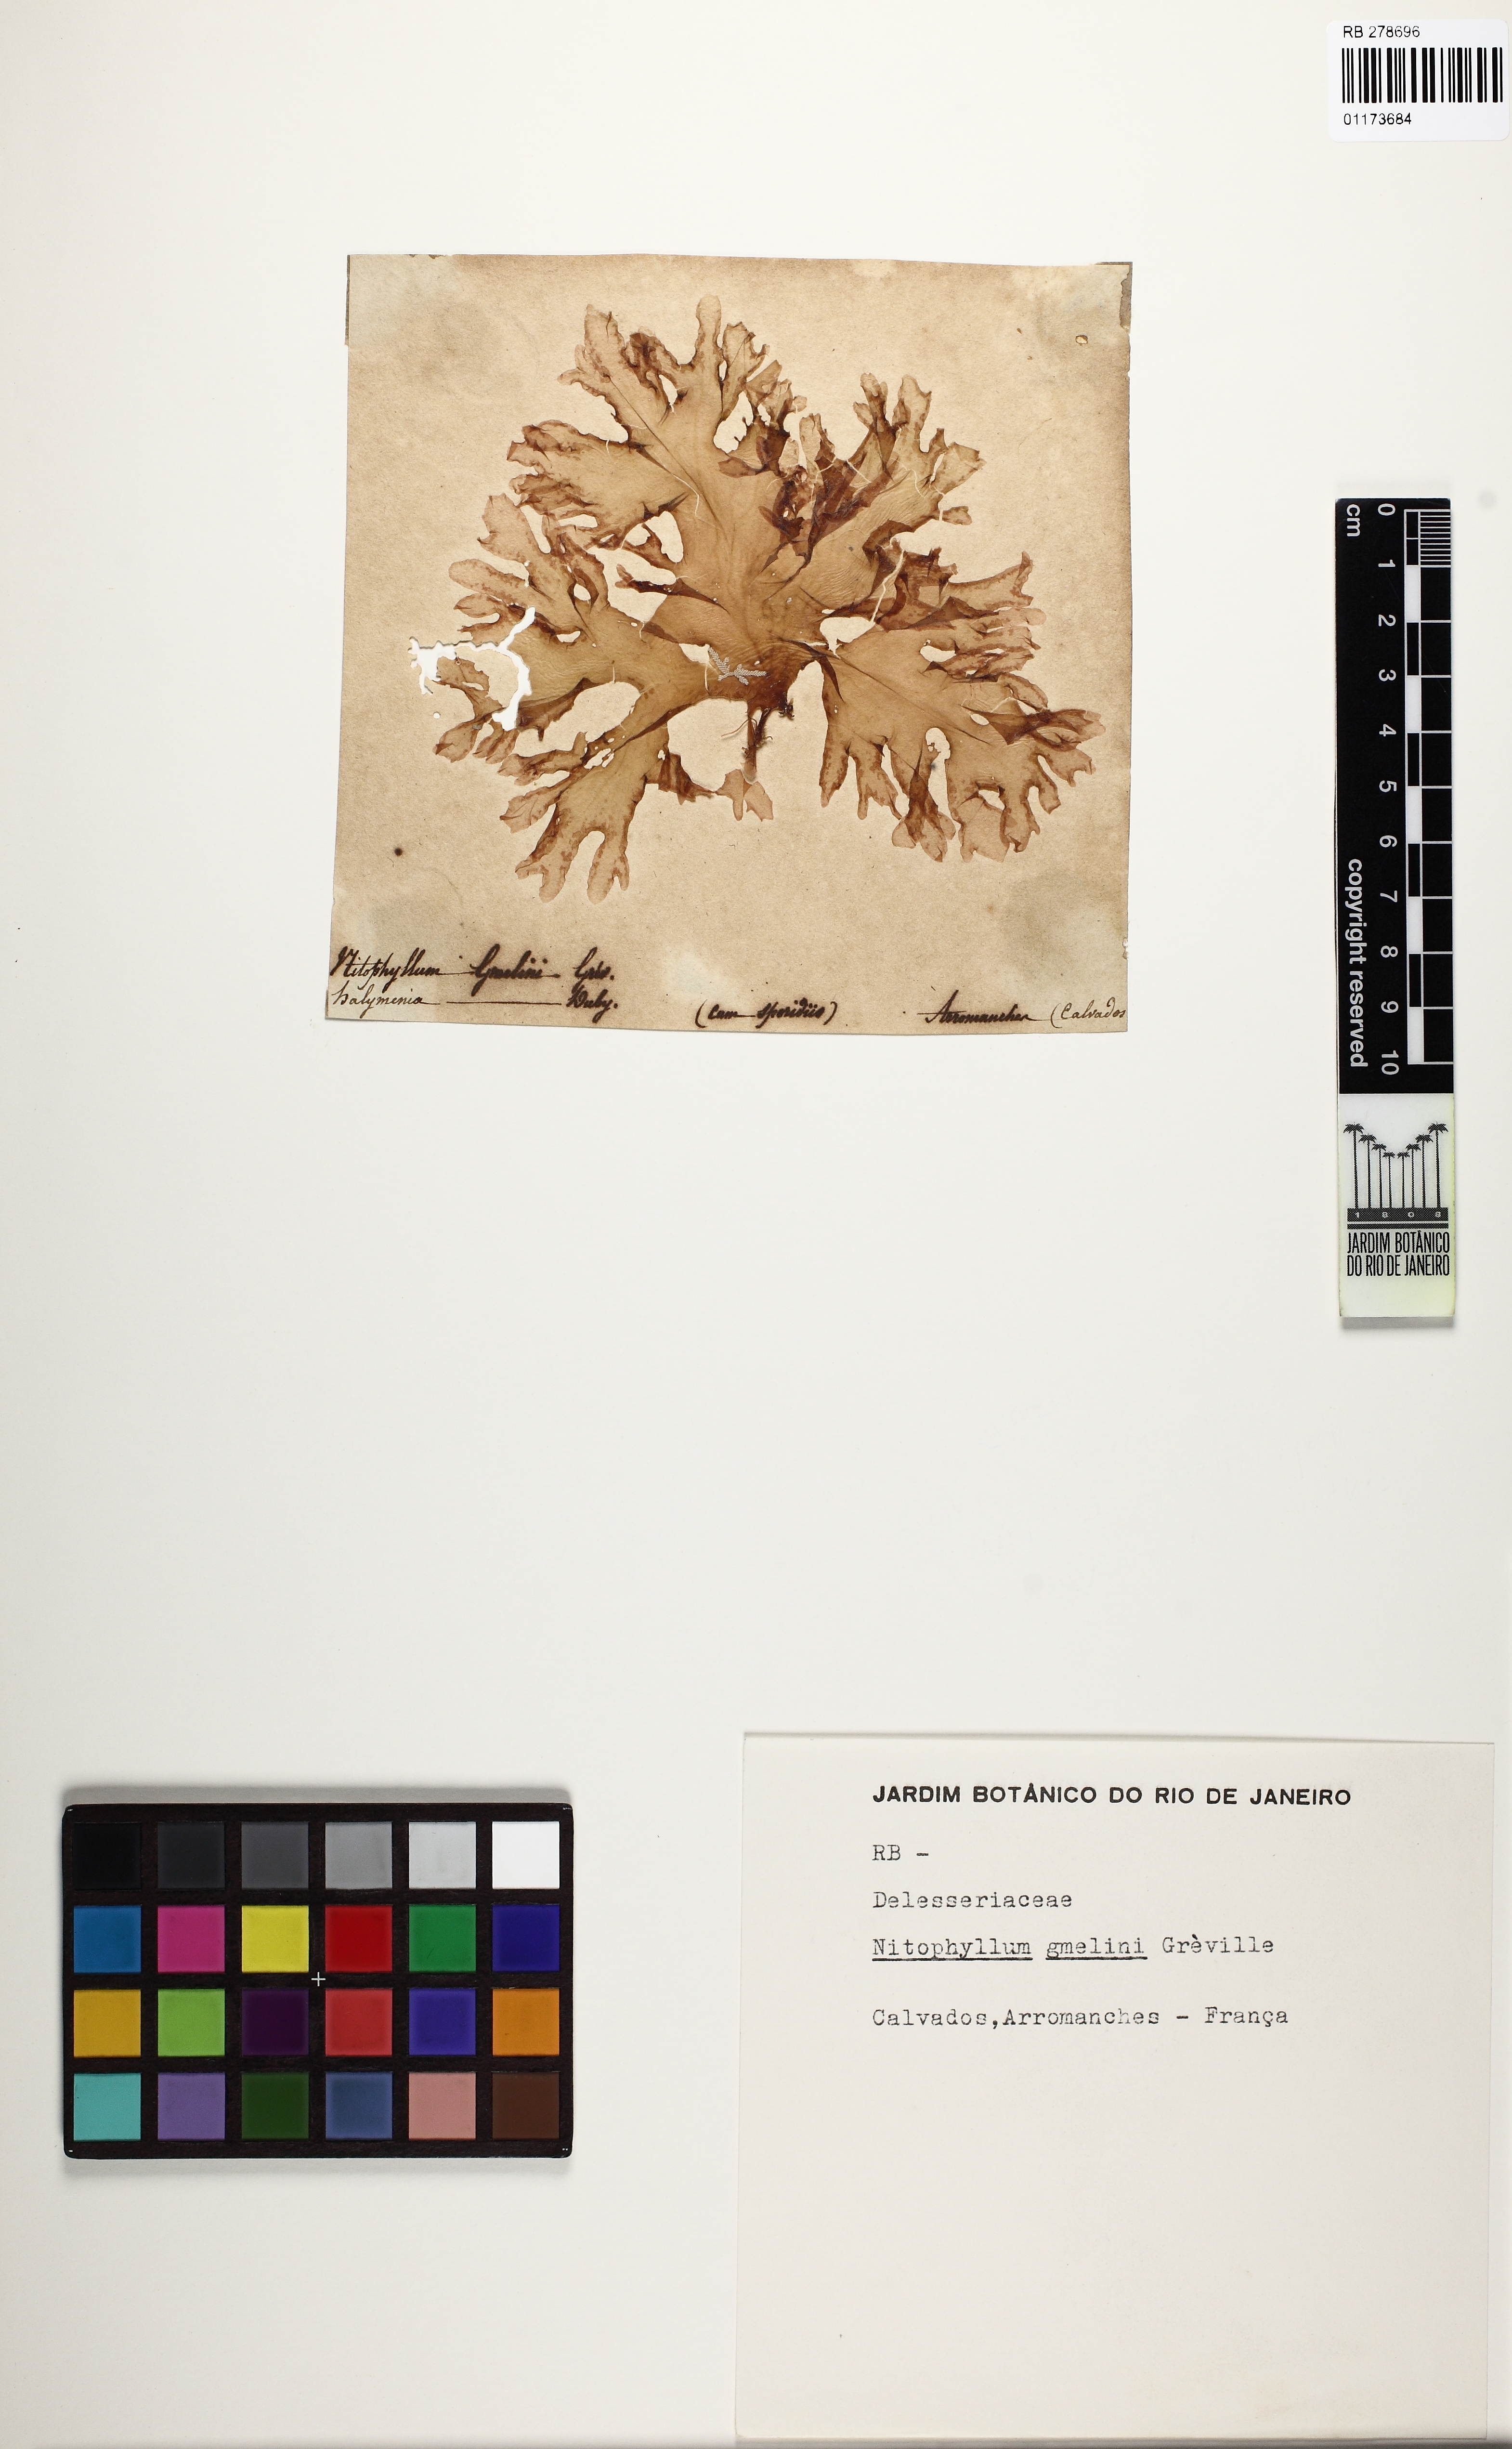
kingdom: Plantae
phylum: Rhodophyta
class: Florideophyceae
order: Halymeniales
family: Halymeniaceae
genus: Cryptonemia
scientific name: Cryptonemia palmetta
